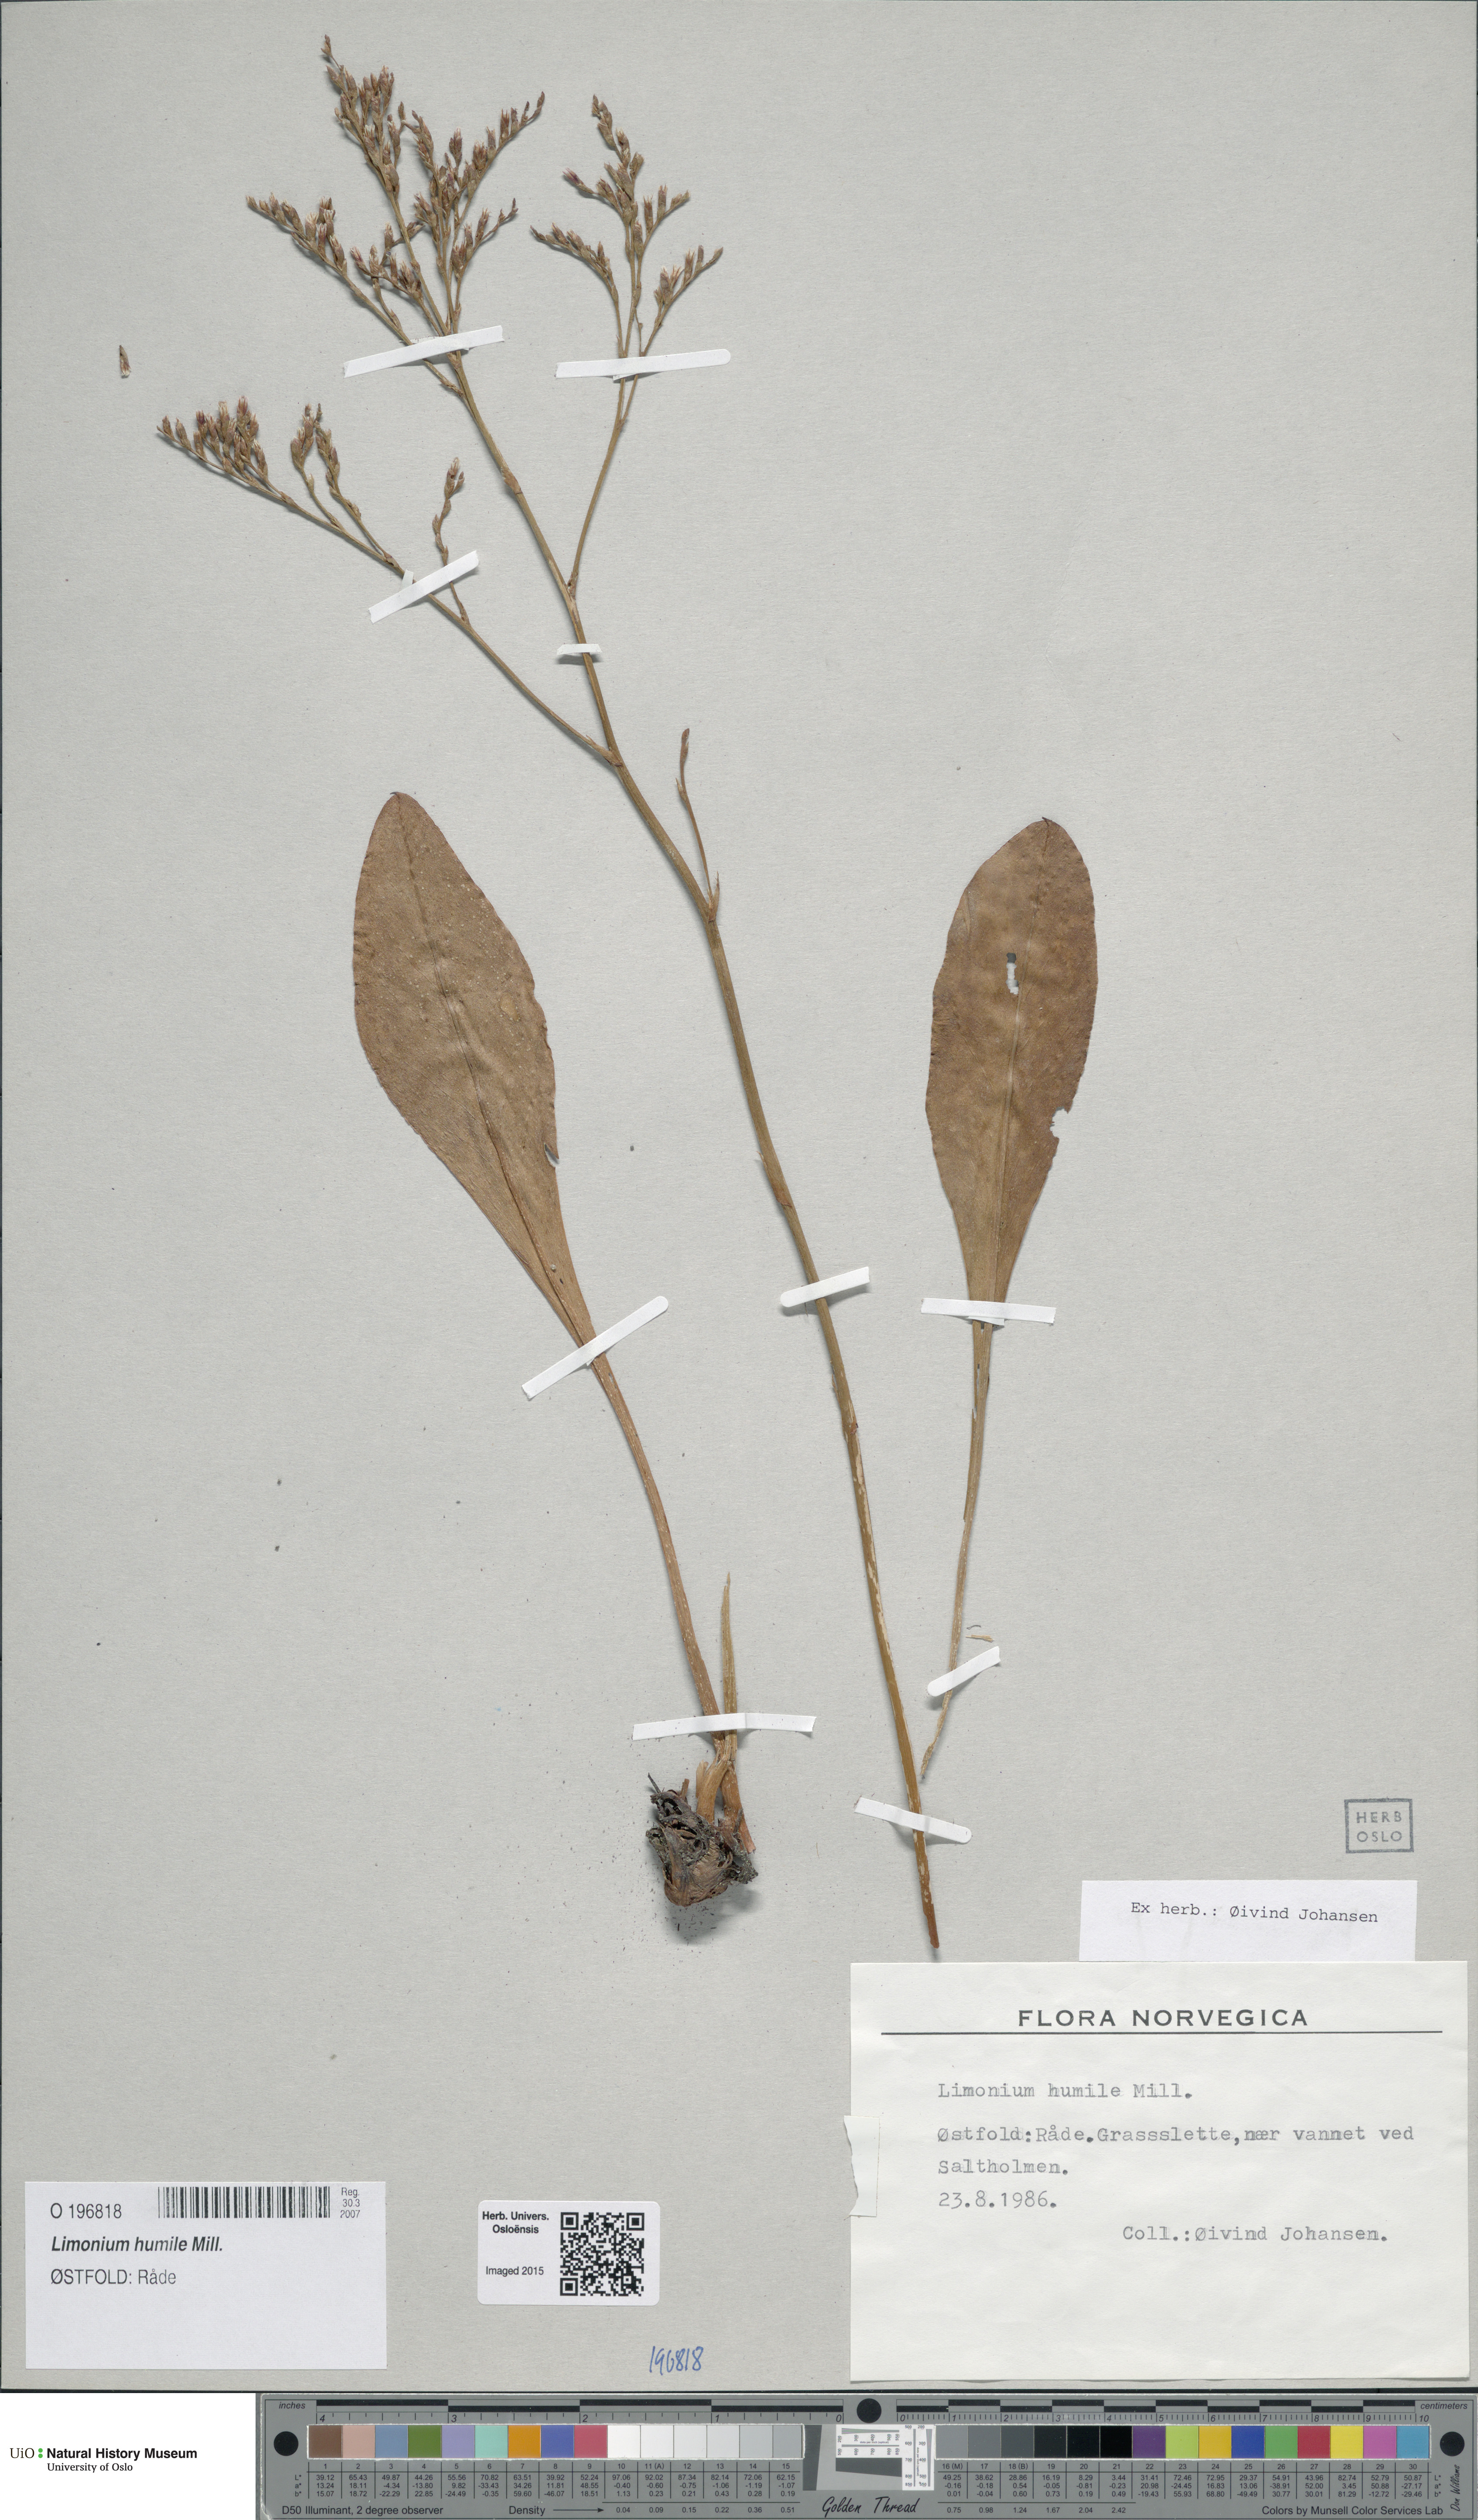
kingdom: Plantae
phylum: Tracheophyta
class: Magnoliopsida
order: Caryophyllales
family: Plumbaginaceae
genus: Limonium
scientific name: Limonium humile
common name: Lax-flowered sea-lavender
